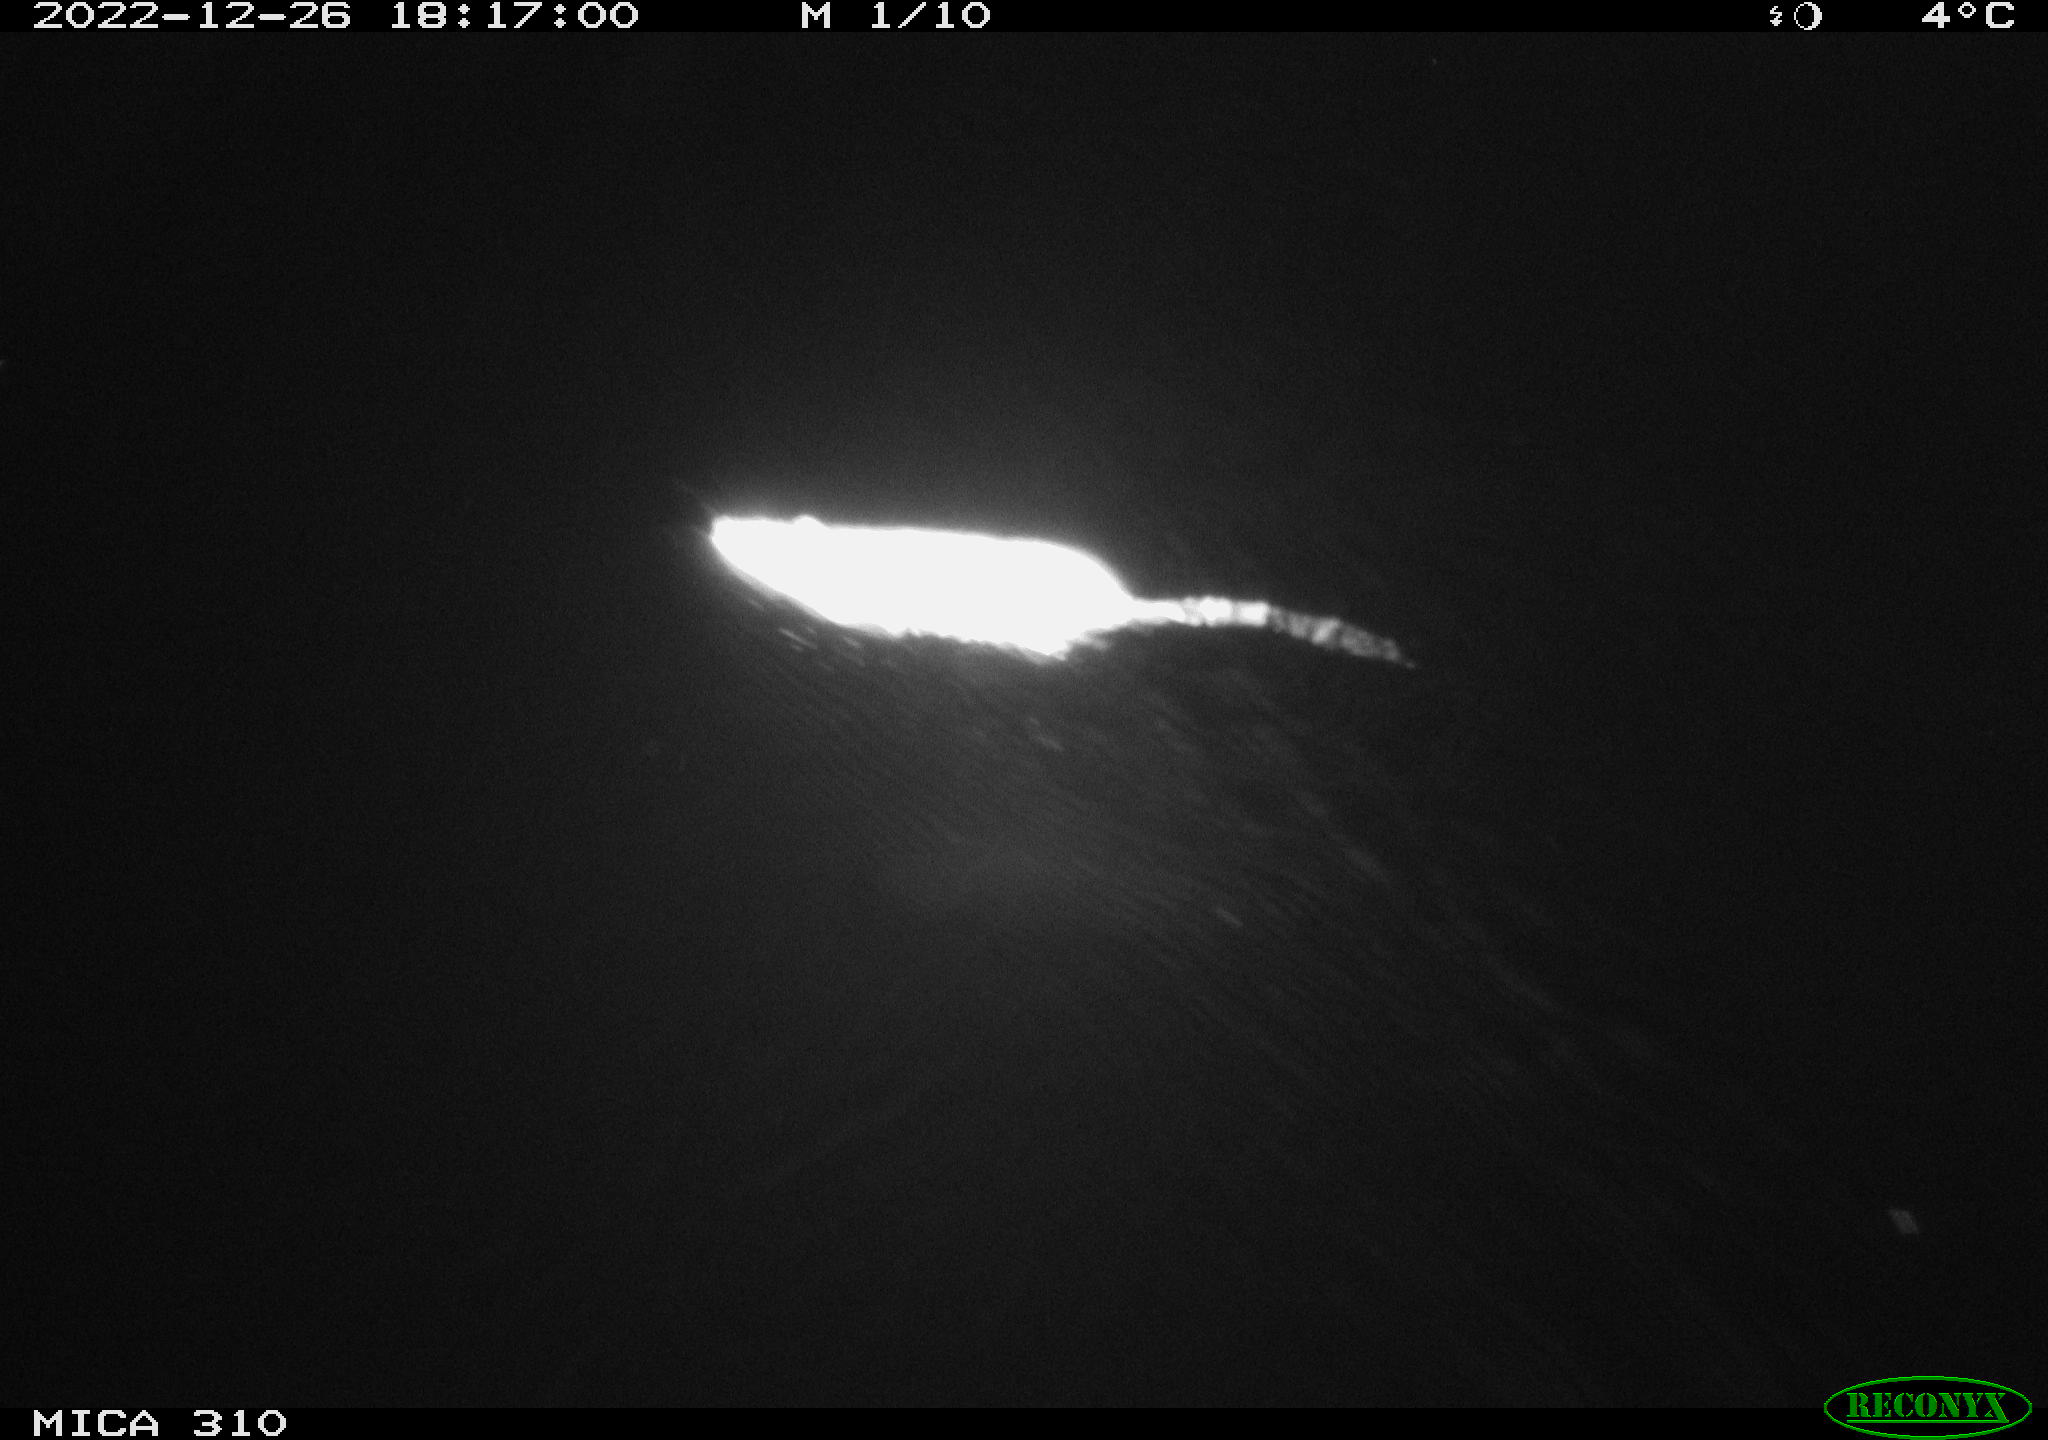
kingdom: Animalia
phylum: Chordata
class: Mammalia
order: Rodentia
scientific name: Rodentia
